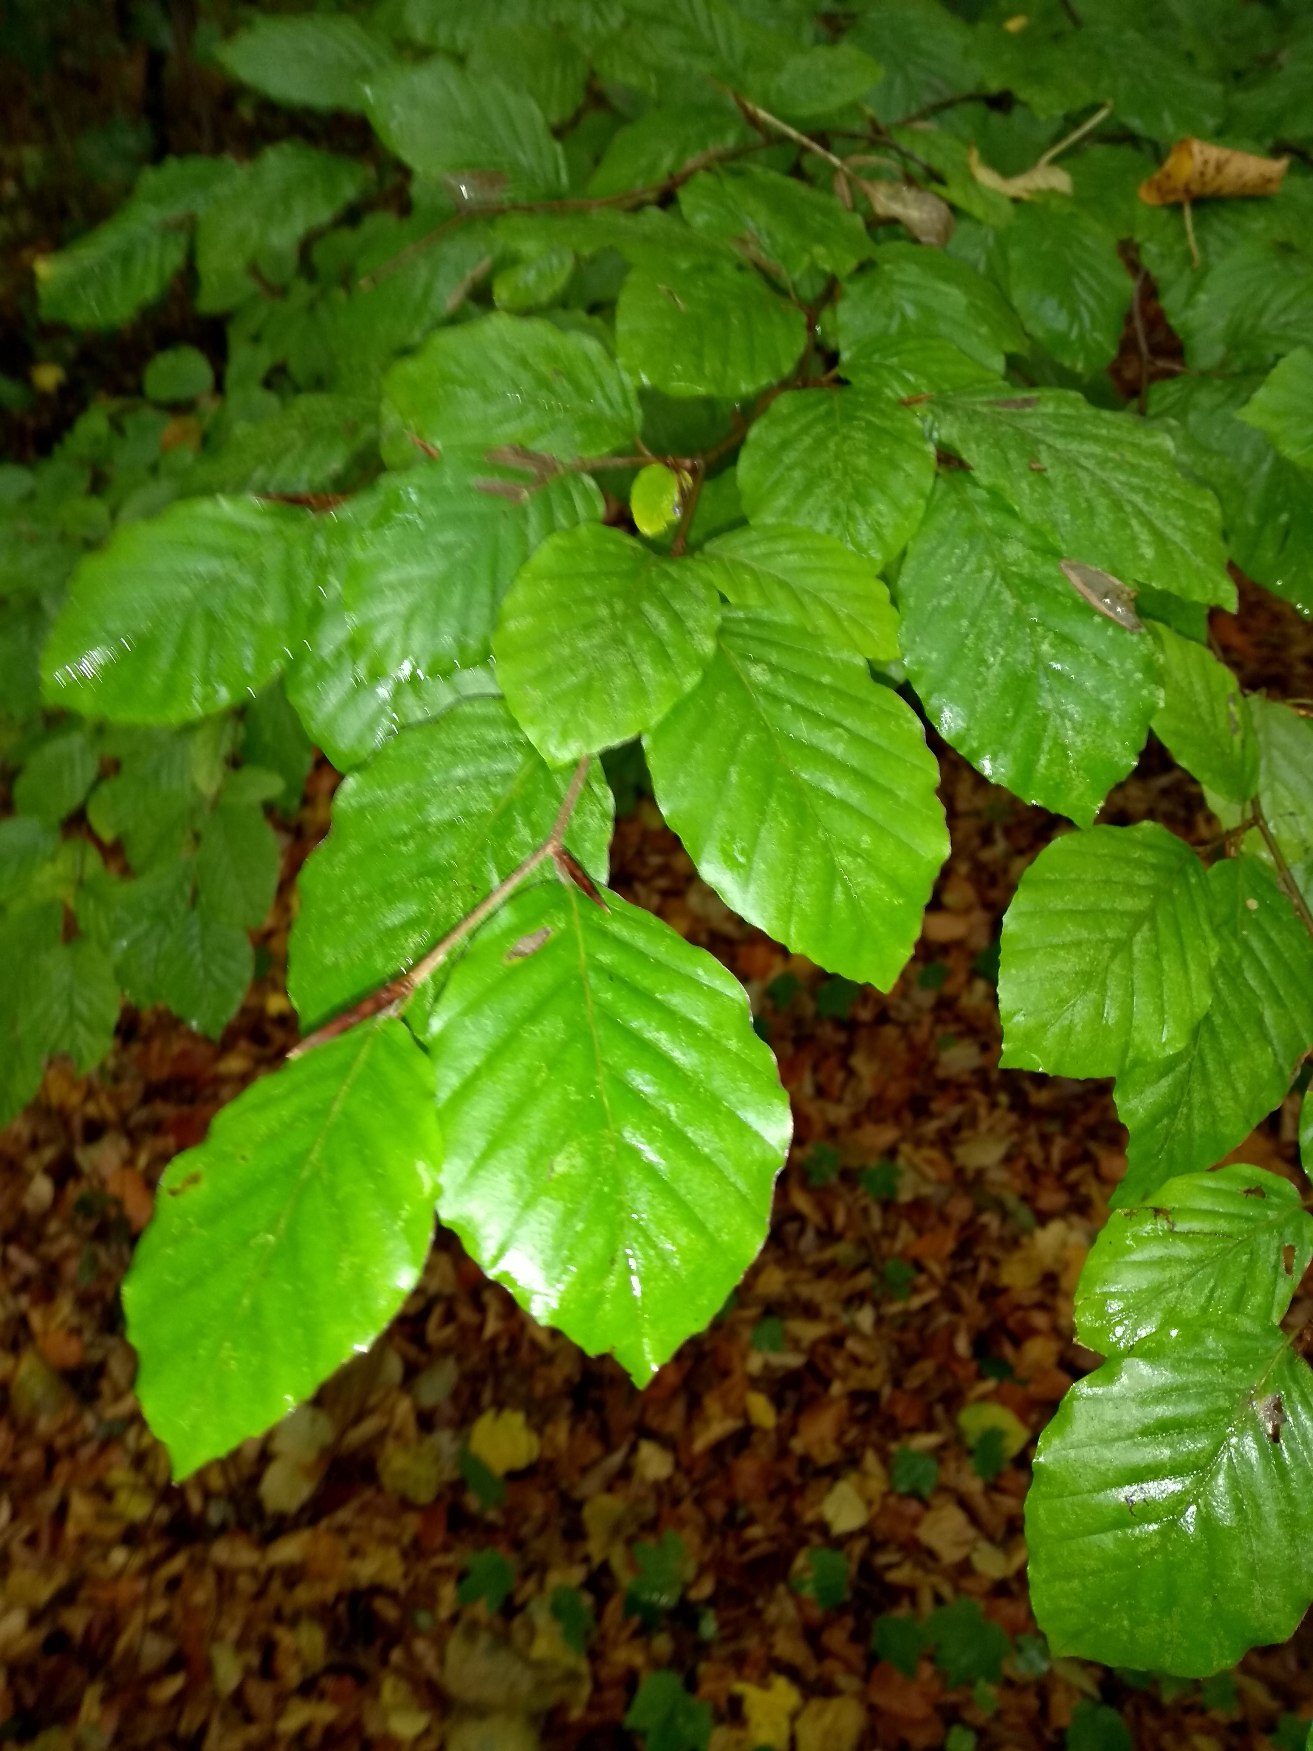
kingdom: Plantae
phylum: Tracheophyta
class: Magnoliopsida
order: Fagales
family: Fagaceae
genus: Fagus
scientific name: Fagus sylvatica
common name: Bøg
